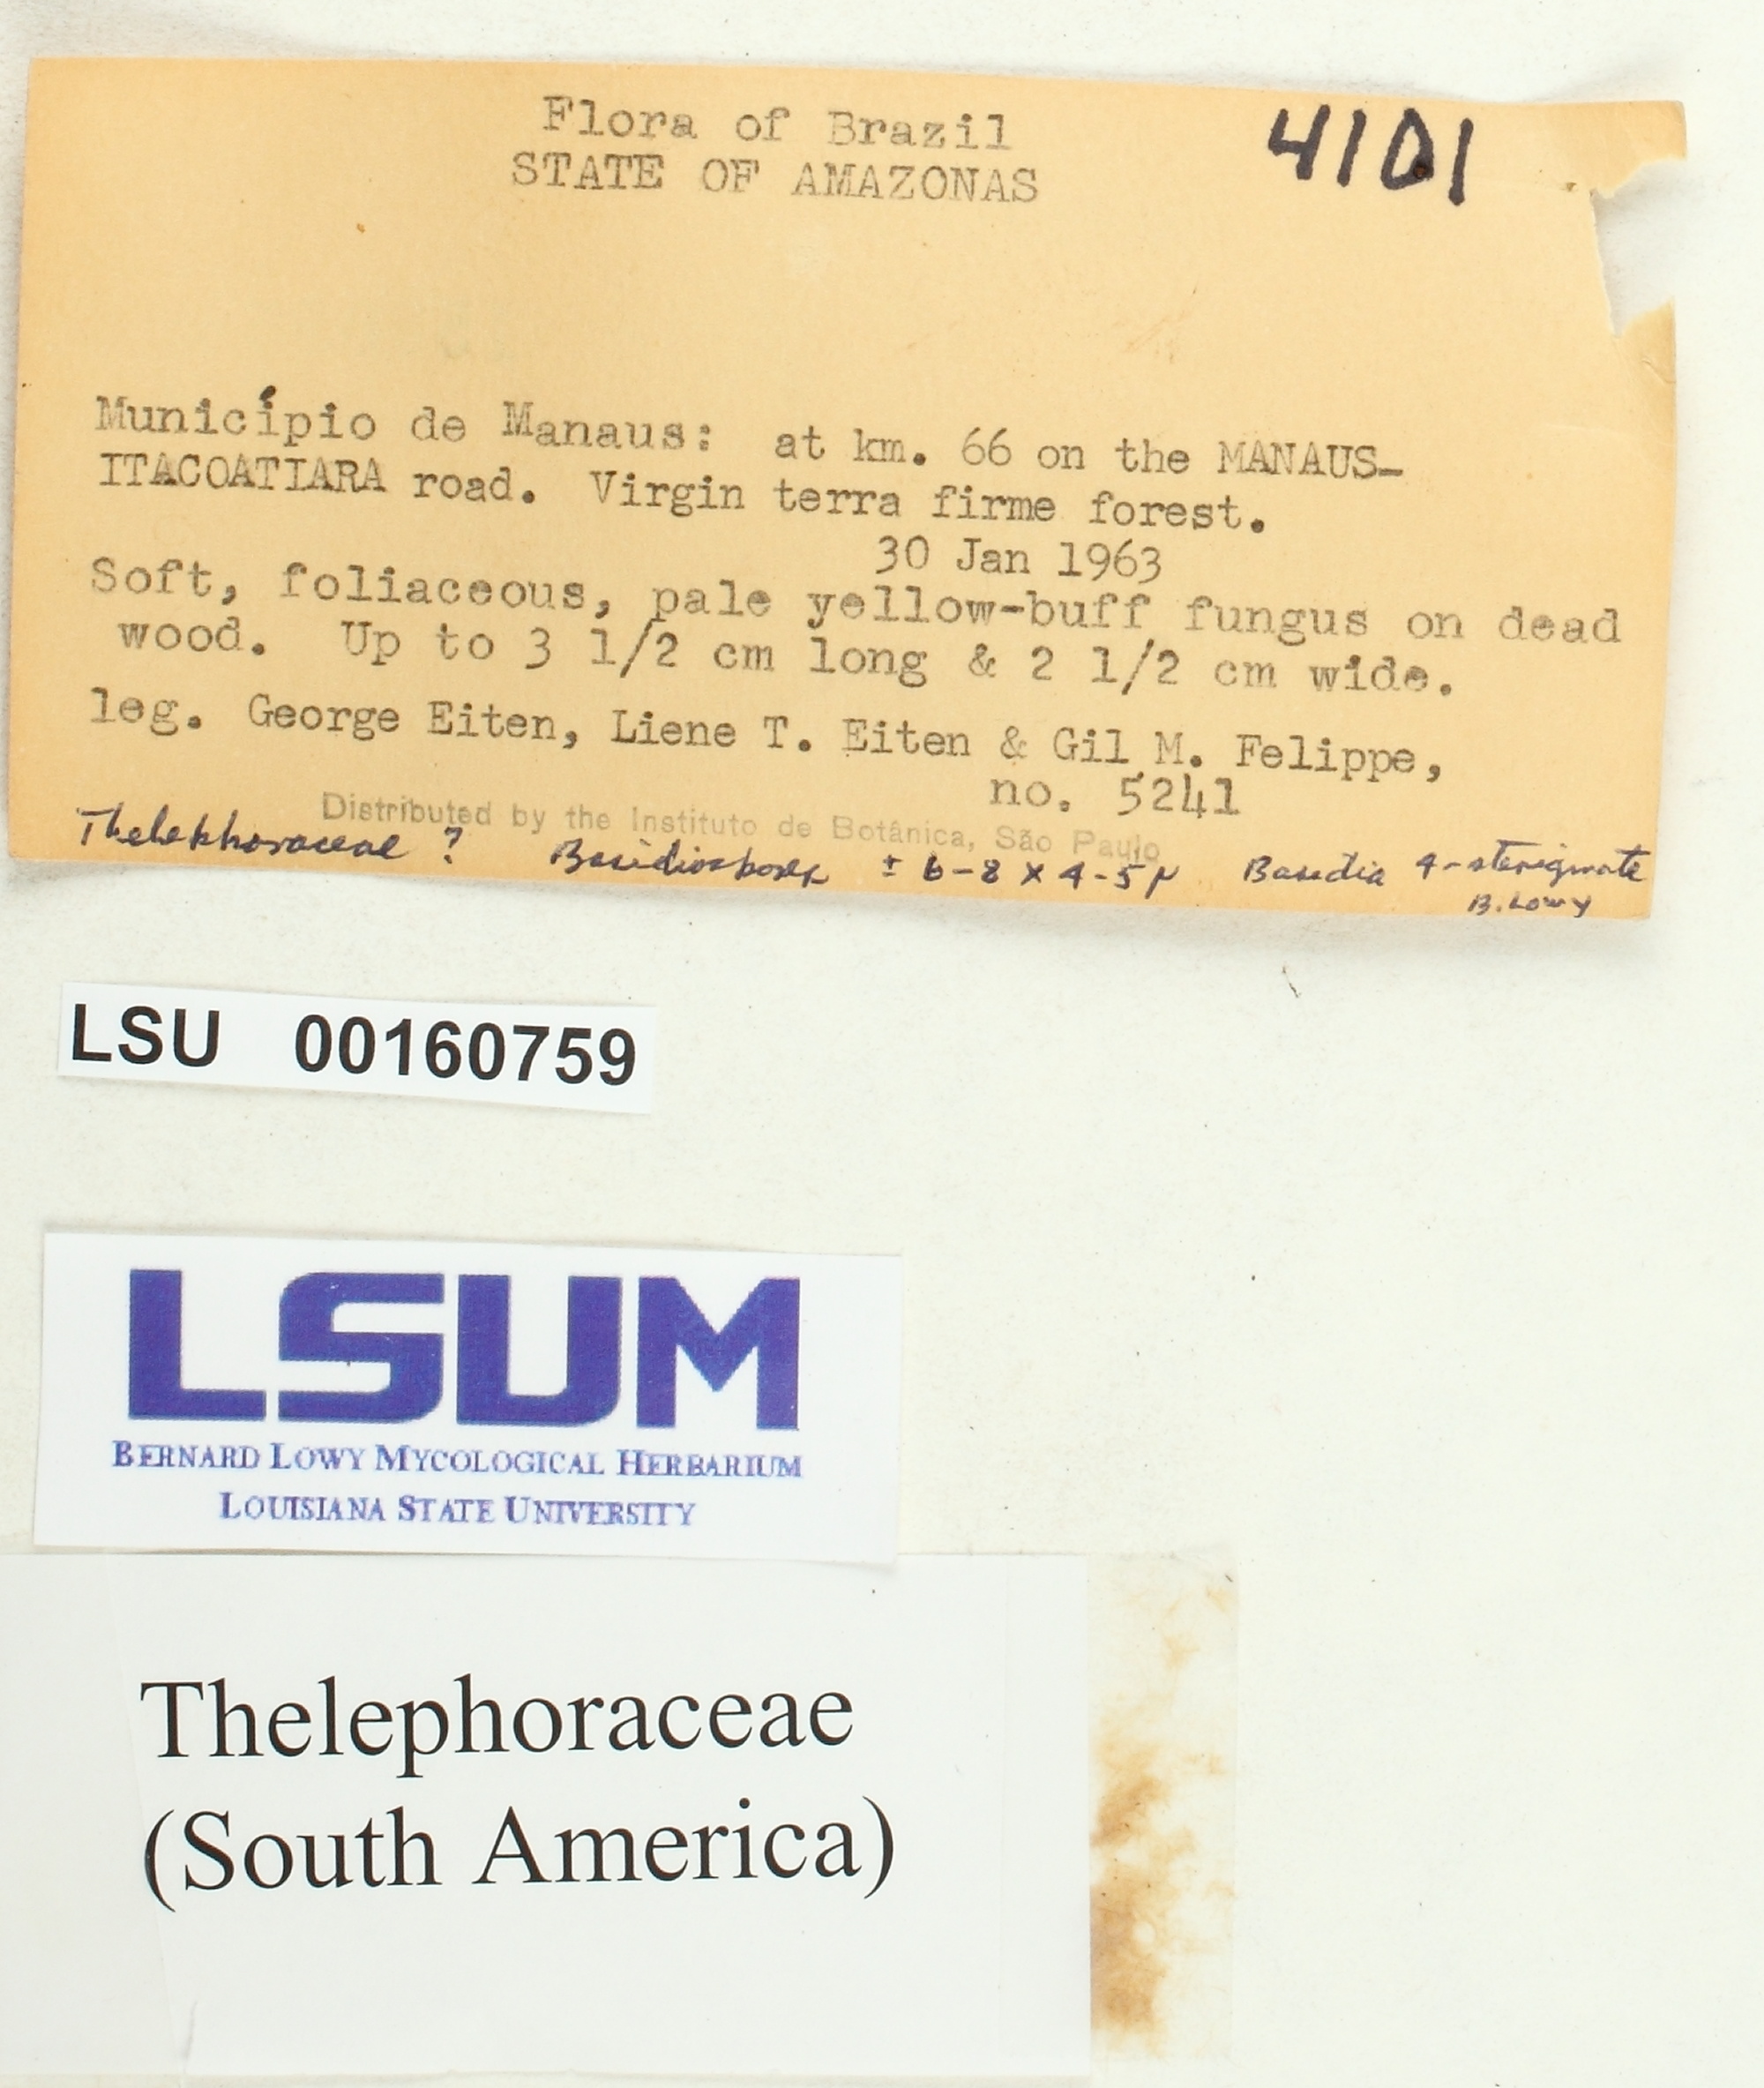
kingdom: Fungi
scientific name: Fungi
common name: Fungi
